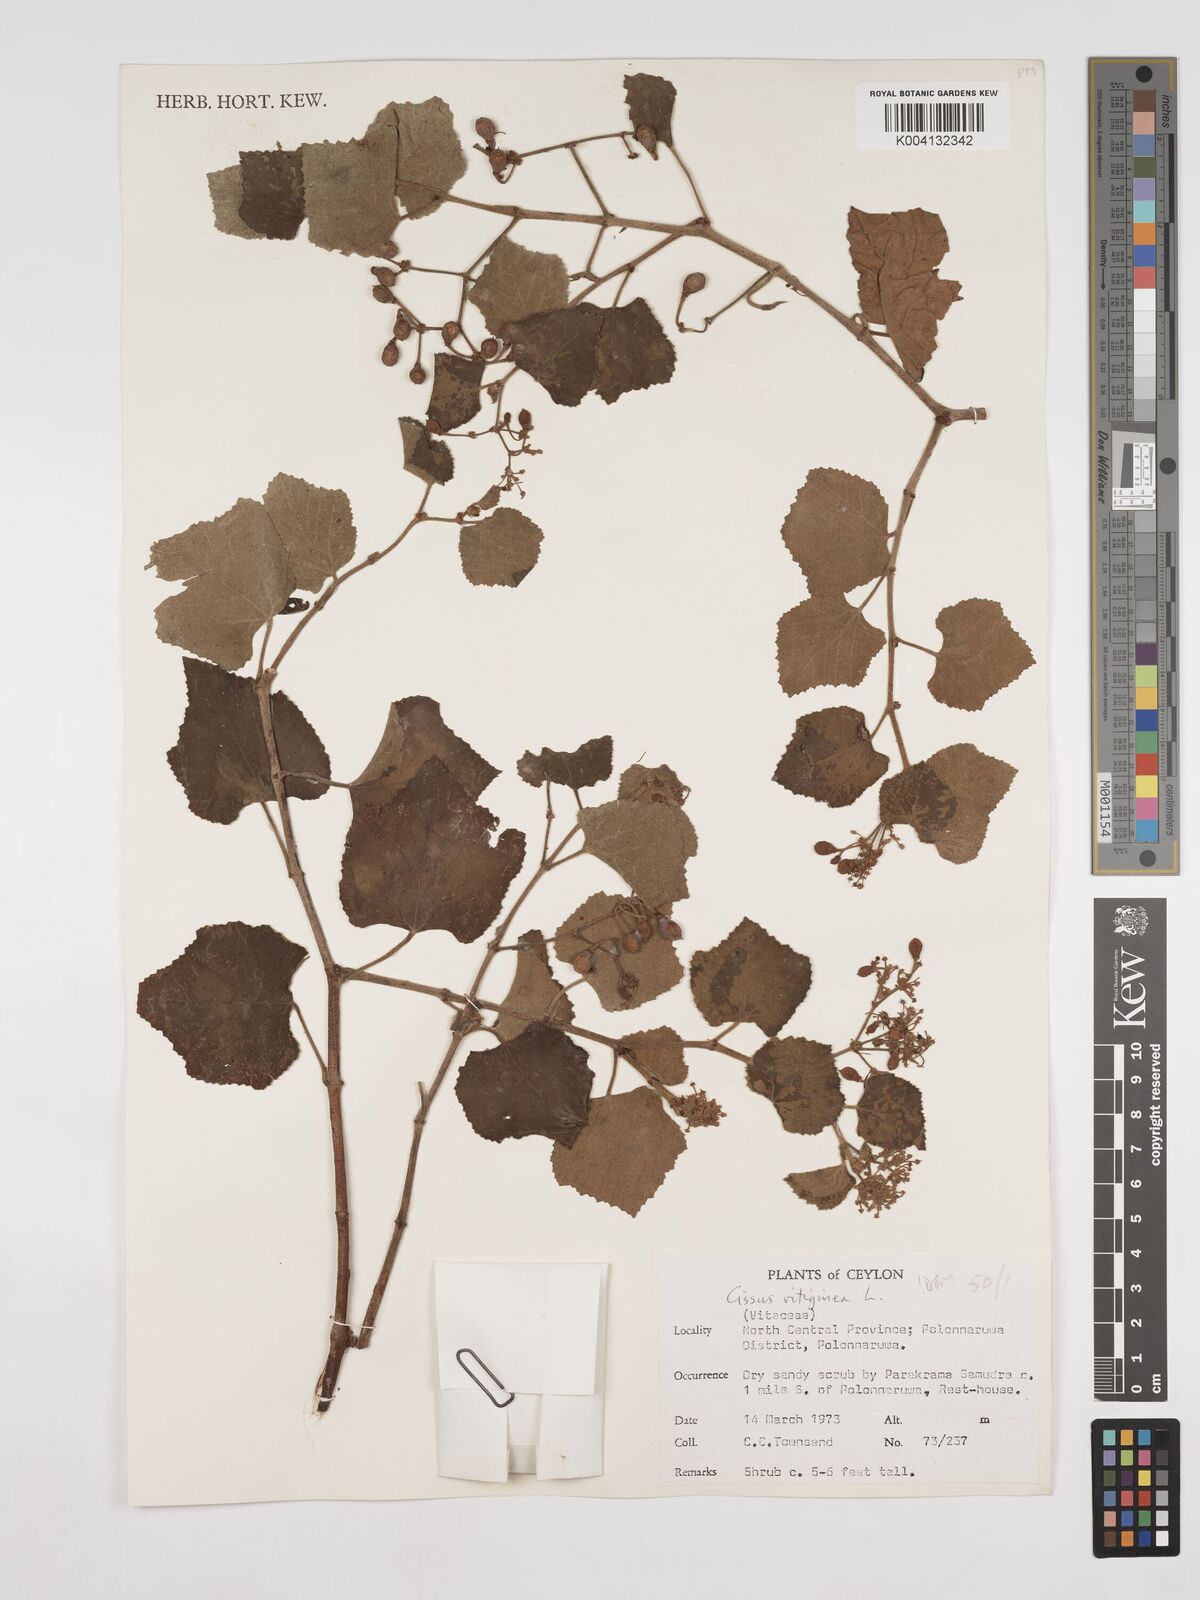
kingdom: Plantae
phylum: Tracheophyta
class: Magnoliopsida
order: Vitales
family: Vitaceae
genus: Cissus
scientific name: Cissus vitiginea
